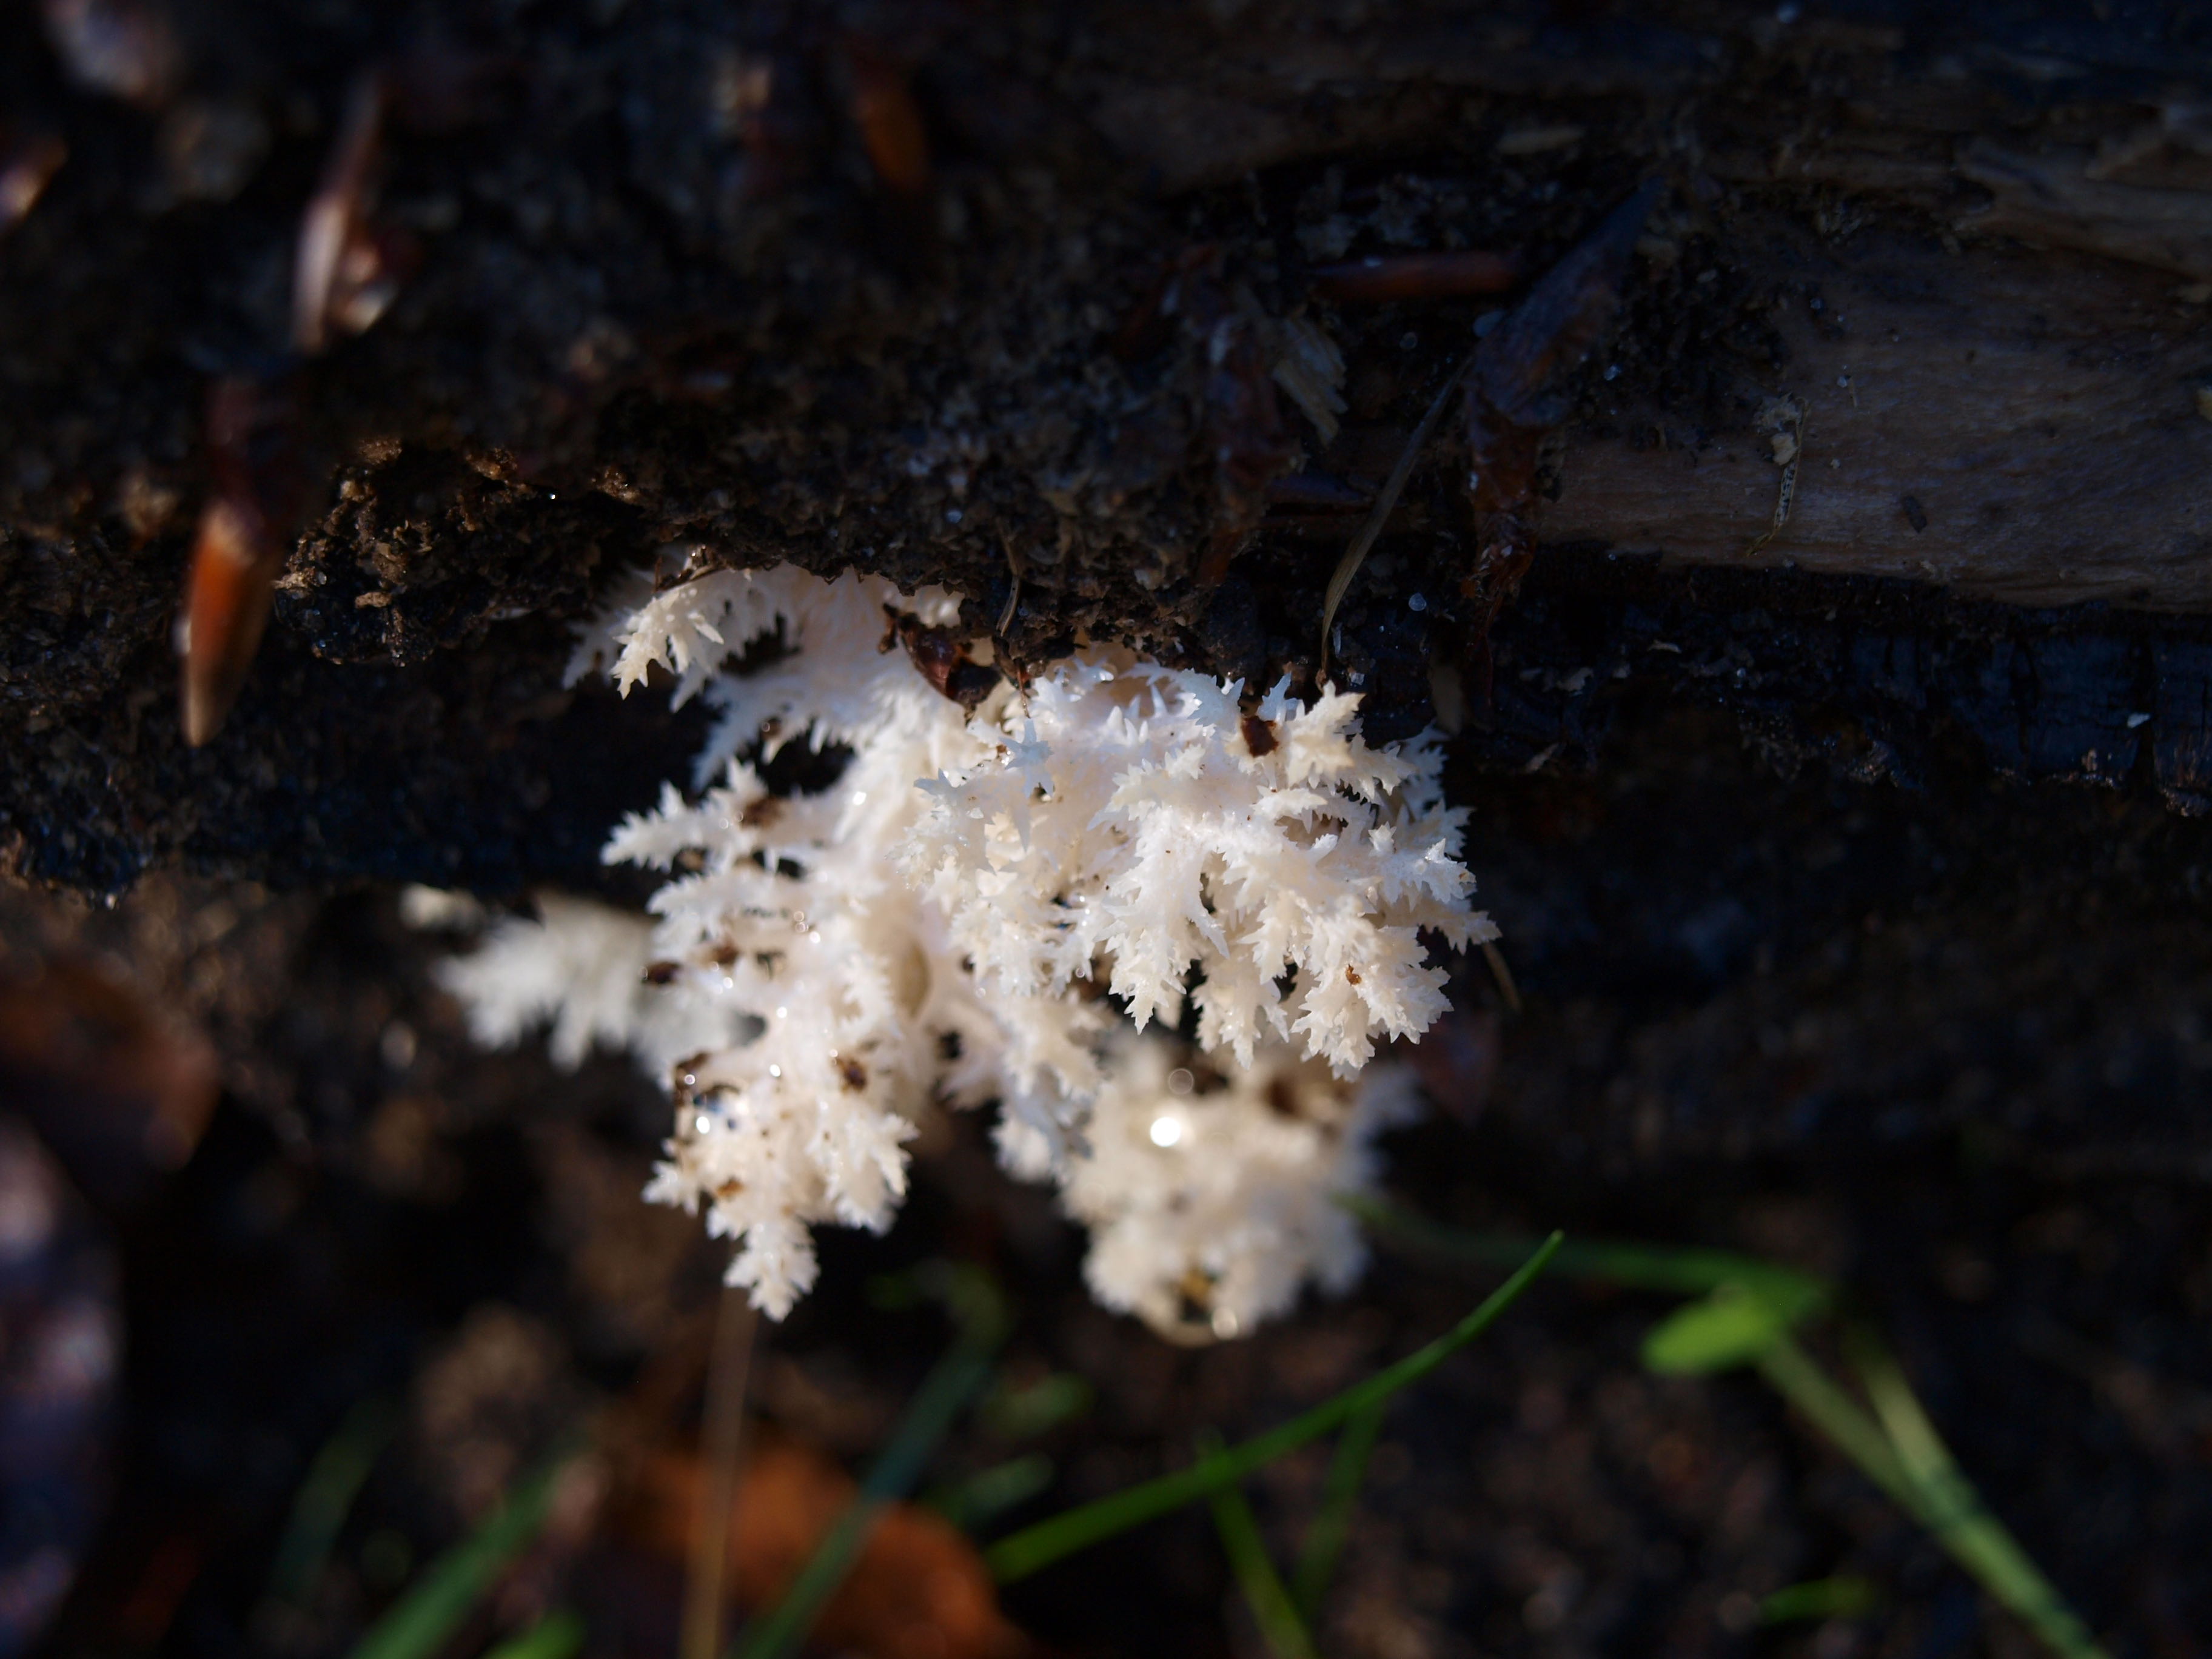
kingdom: Fungi
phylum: Basidiomycota
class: Agaricomycetes
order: Russulales
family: Hericiaceae
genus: Hericium
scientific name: Hericium coralloides
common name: koralpigsvamp
